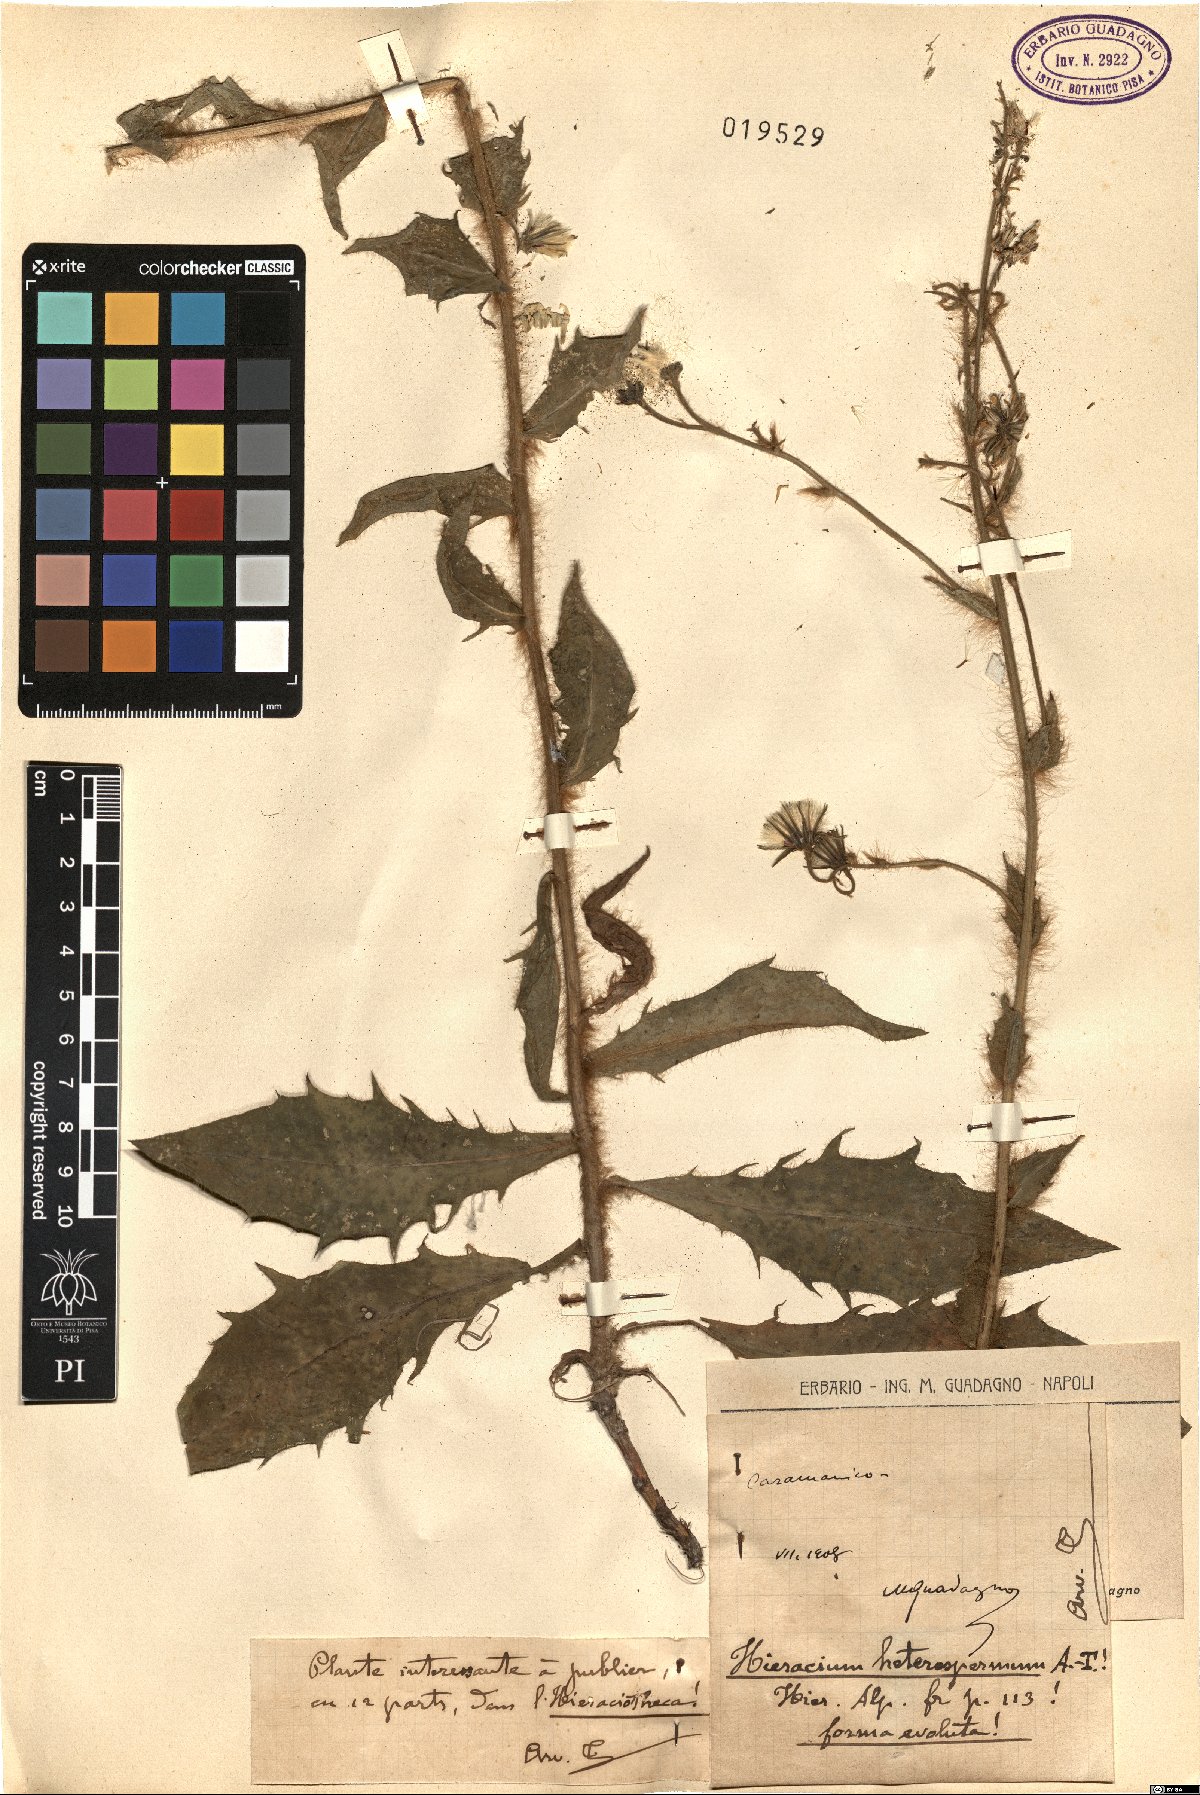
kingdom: Plantae
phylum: Tracheophyta
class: Magnoliopsida
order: Asterales
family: Asteraceae
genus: Hieracium
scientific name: Hieracium racemosum
